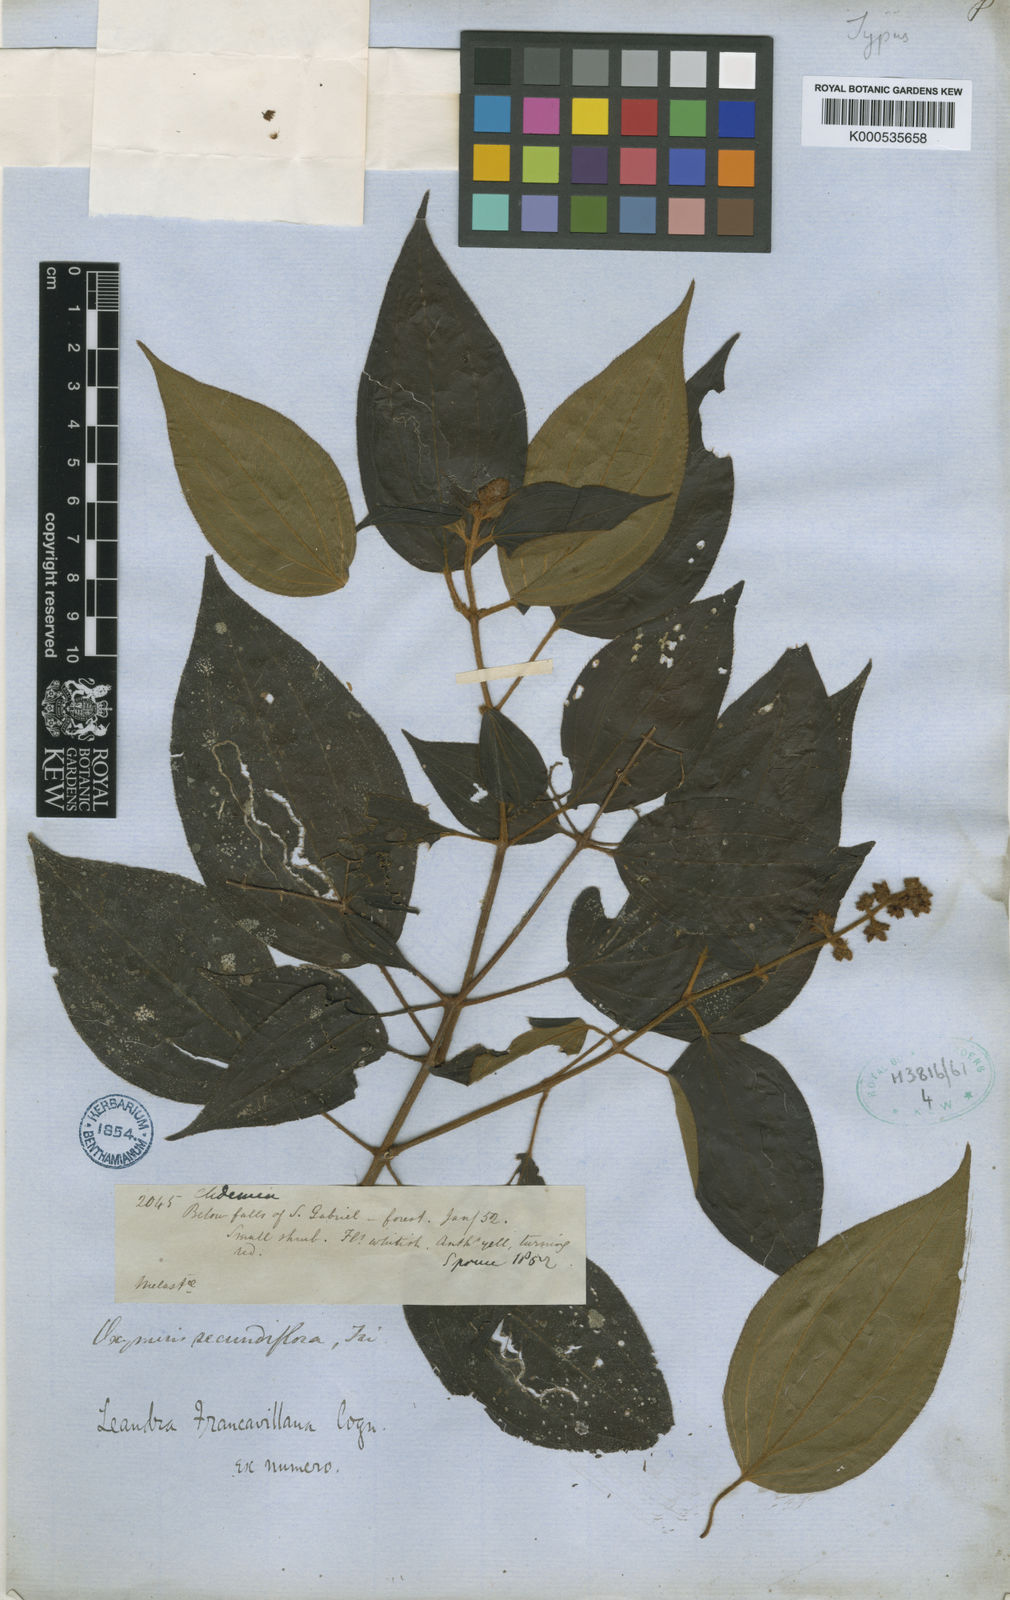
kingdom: Plantae
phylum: Tracheophyta
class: Magnoliopsida
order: Myrtales
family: Melastomataceae
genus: Miconia
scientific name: Miconia secunfrancavillana
